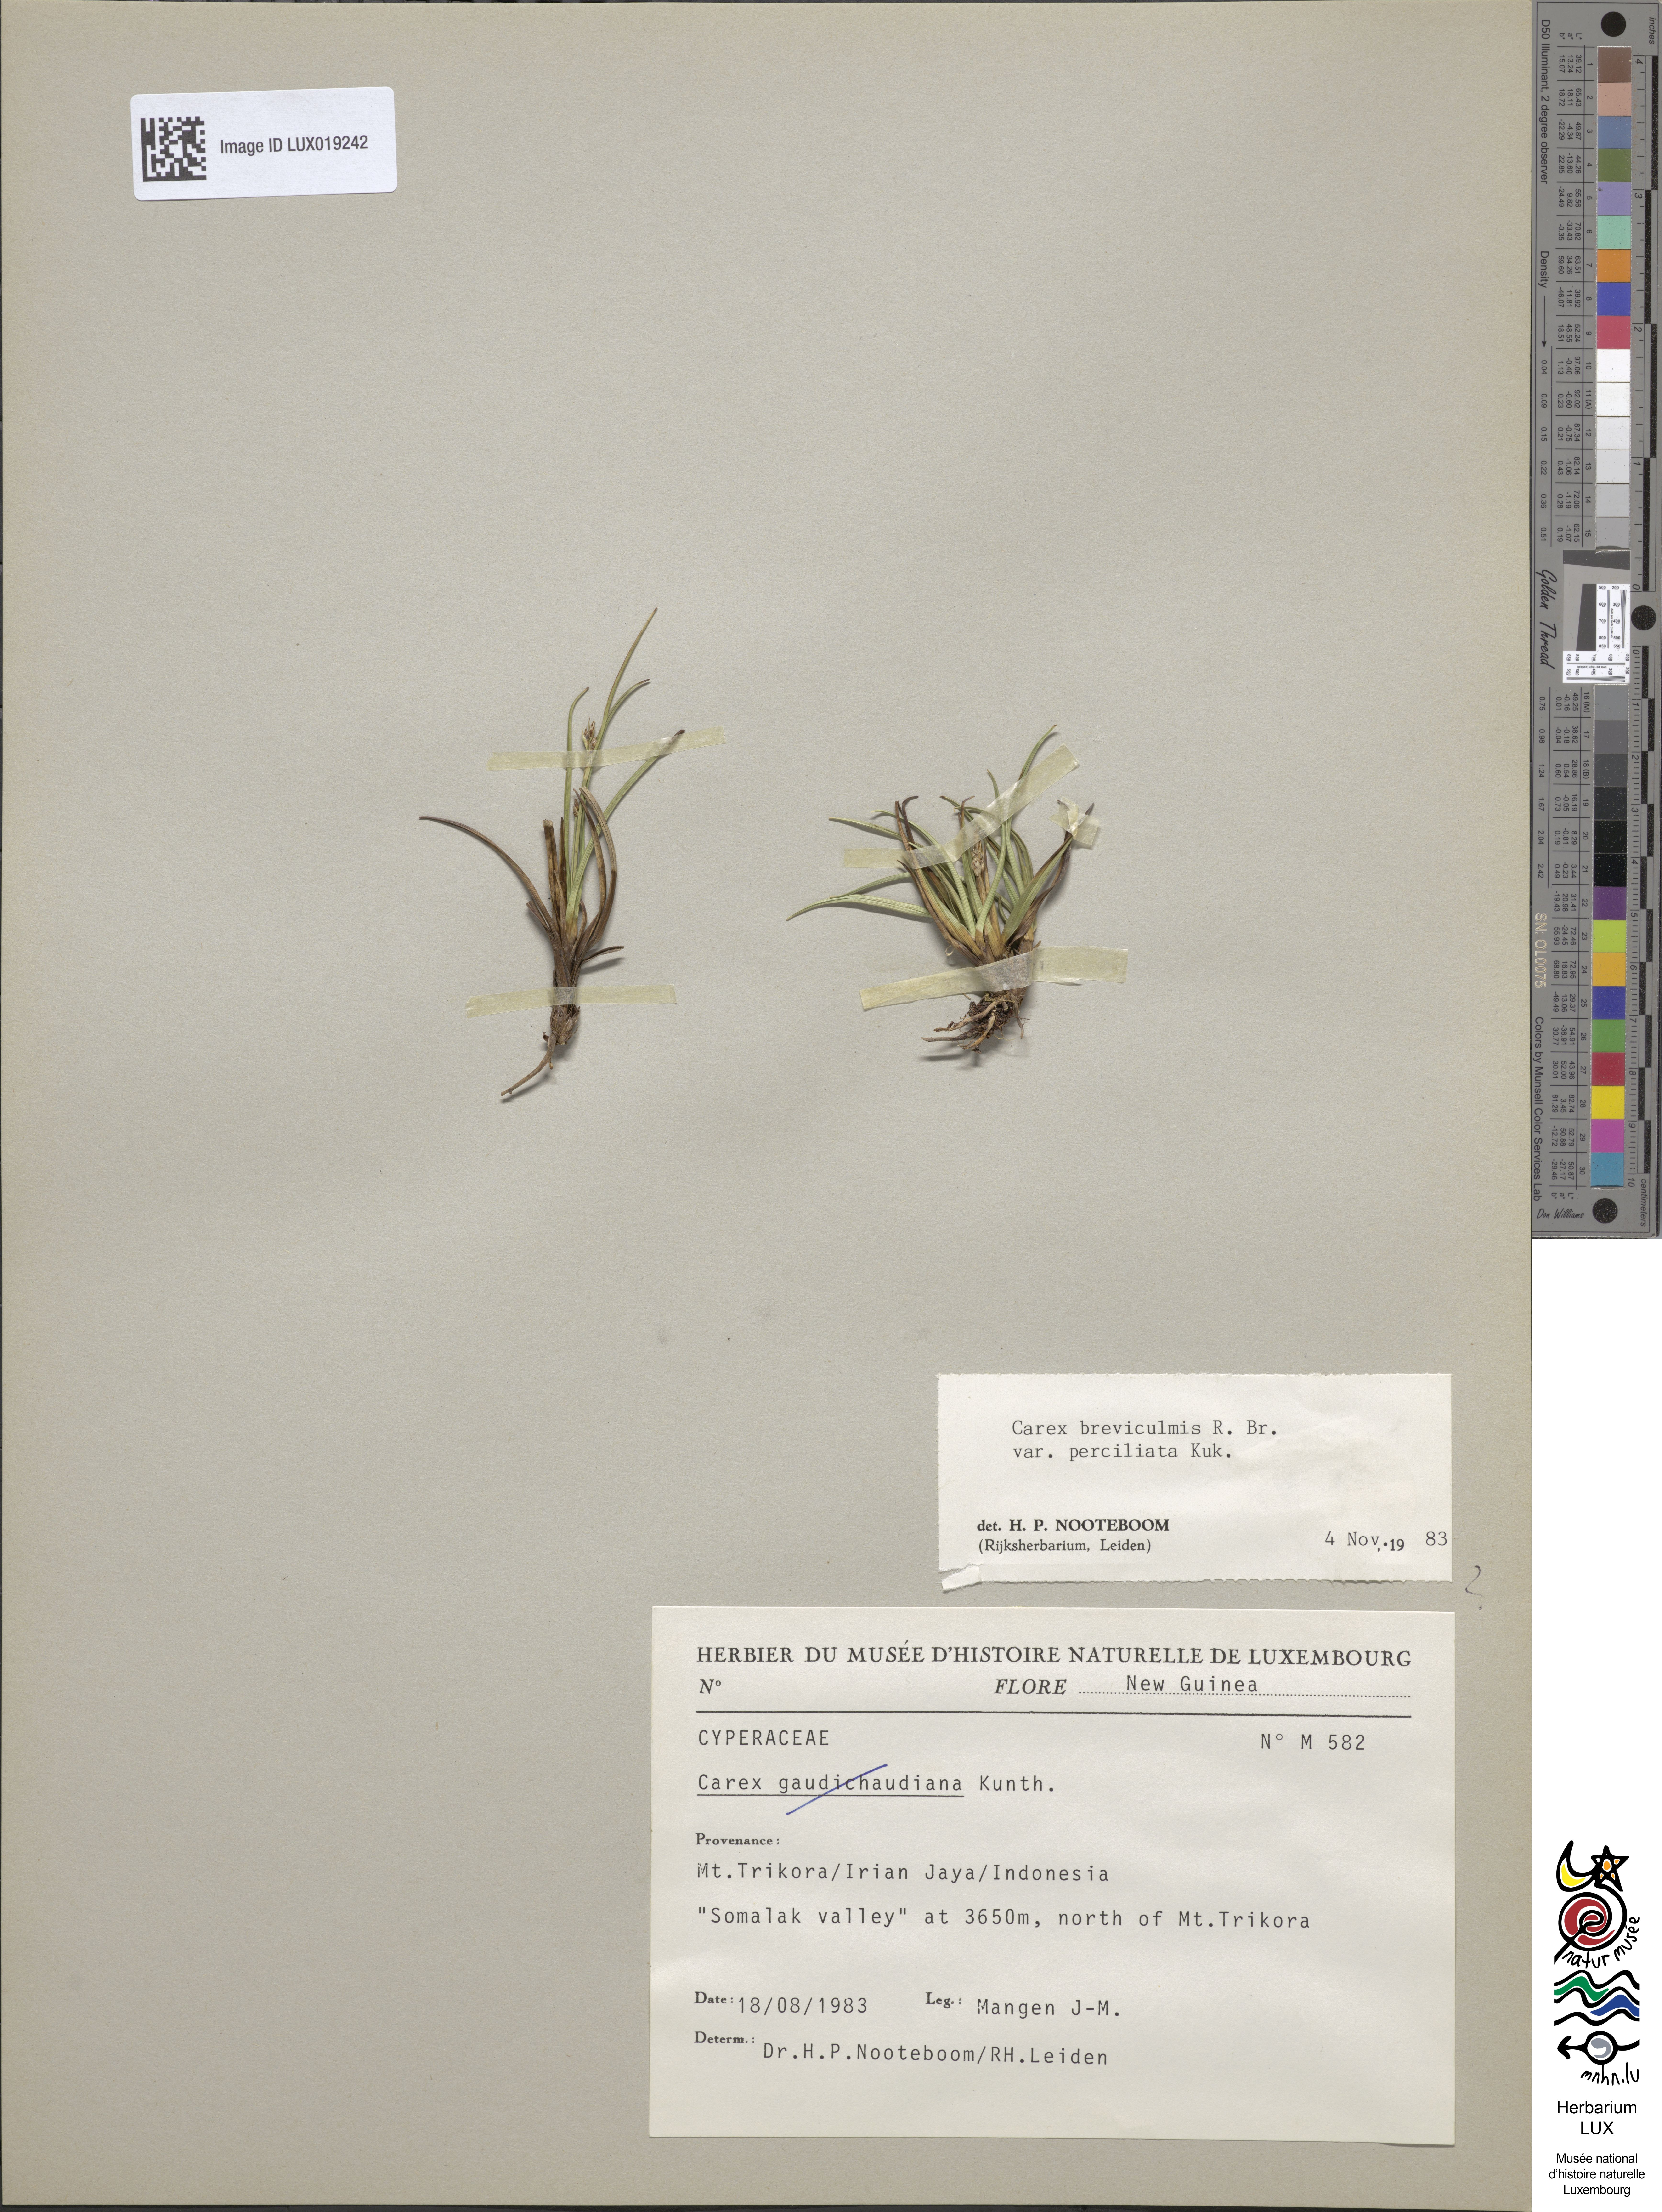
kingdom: Plantae
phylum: Tracheophyta
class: Liliopsida
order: Poales
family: Cyperaceae
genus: Carex
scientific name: Carex gaudichaudiana
